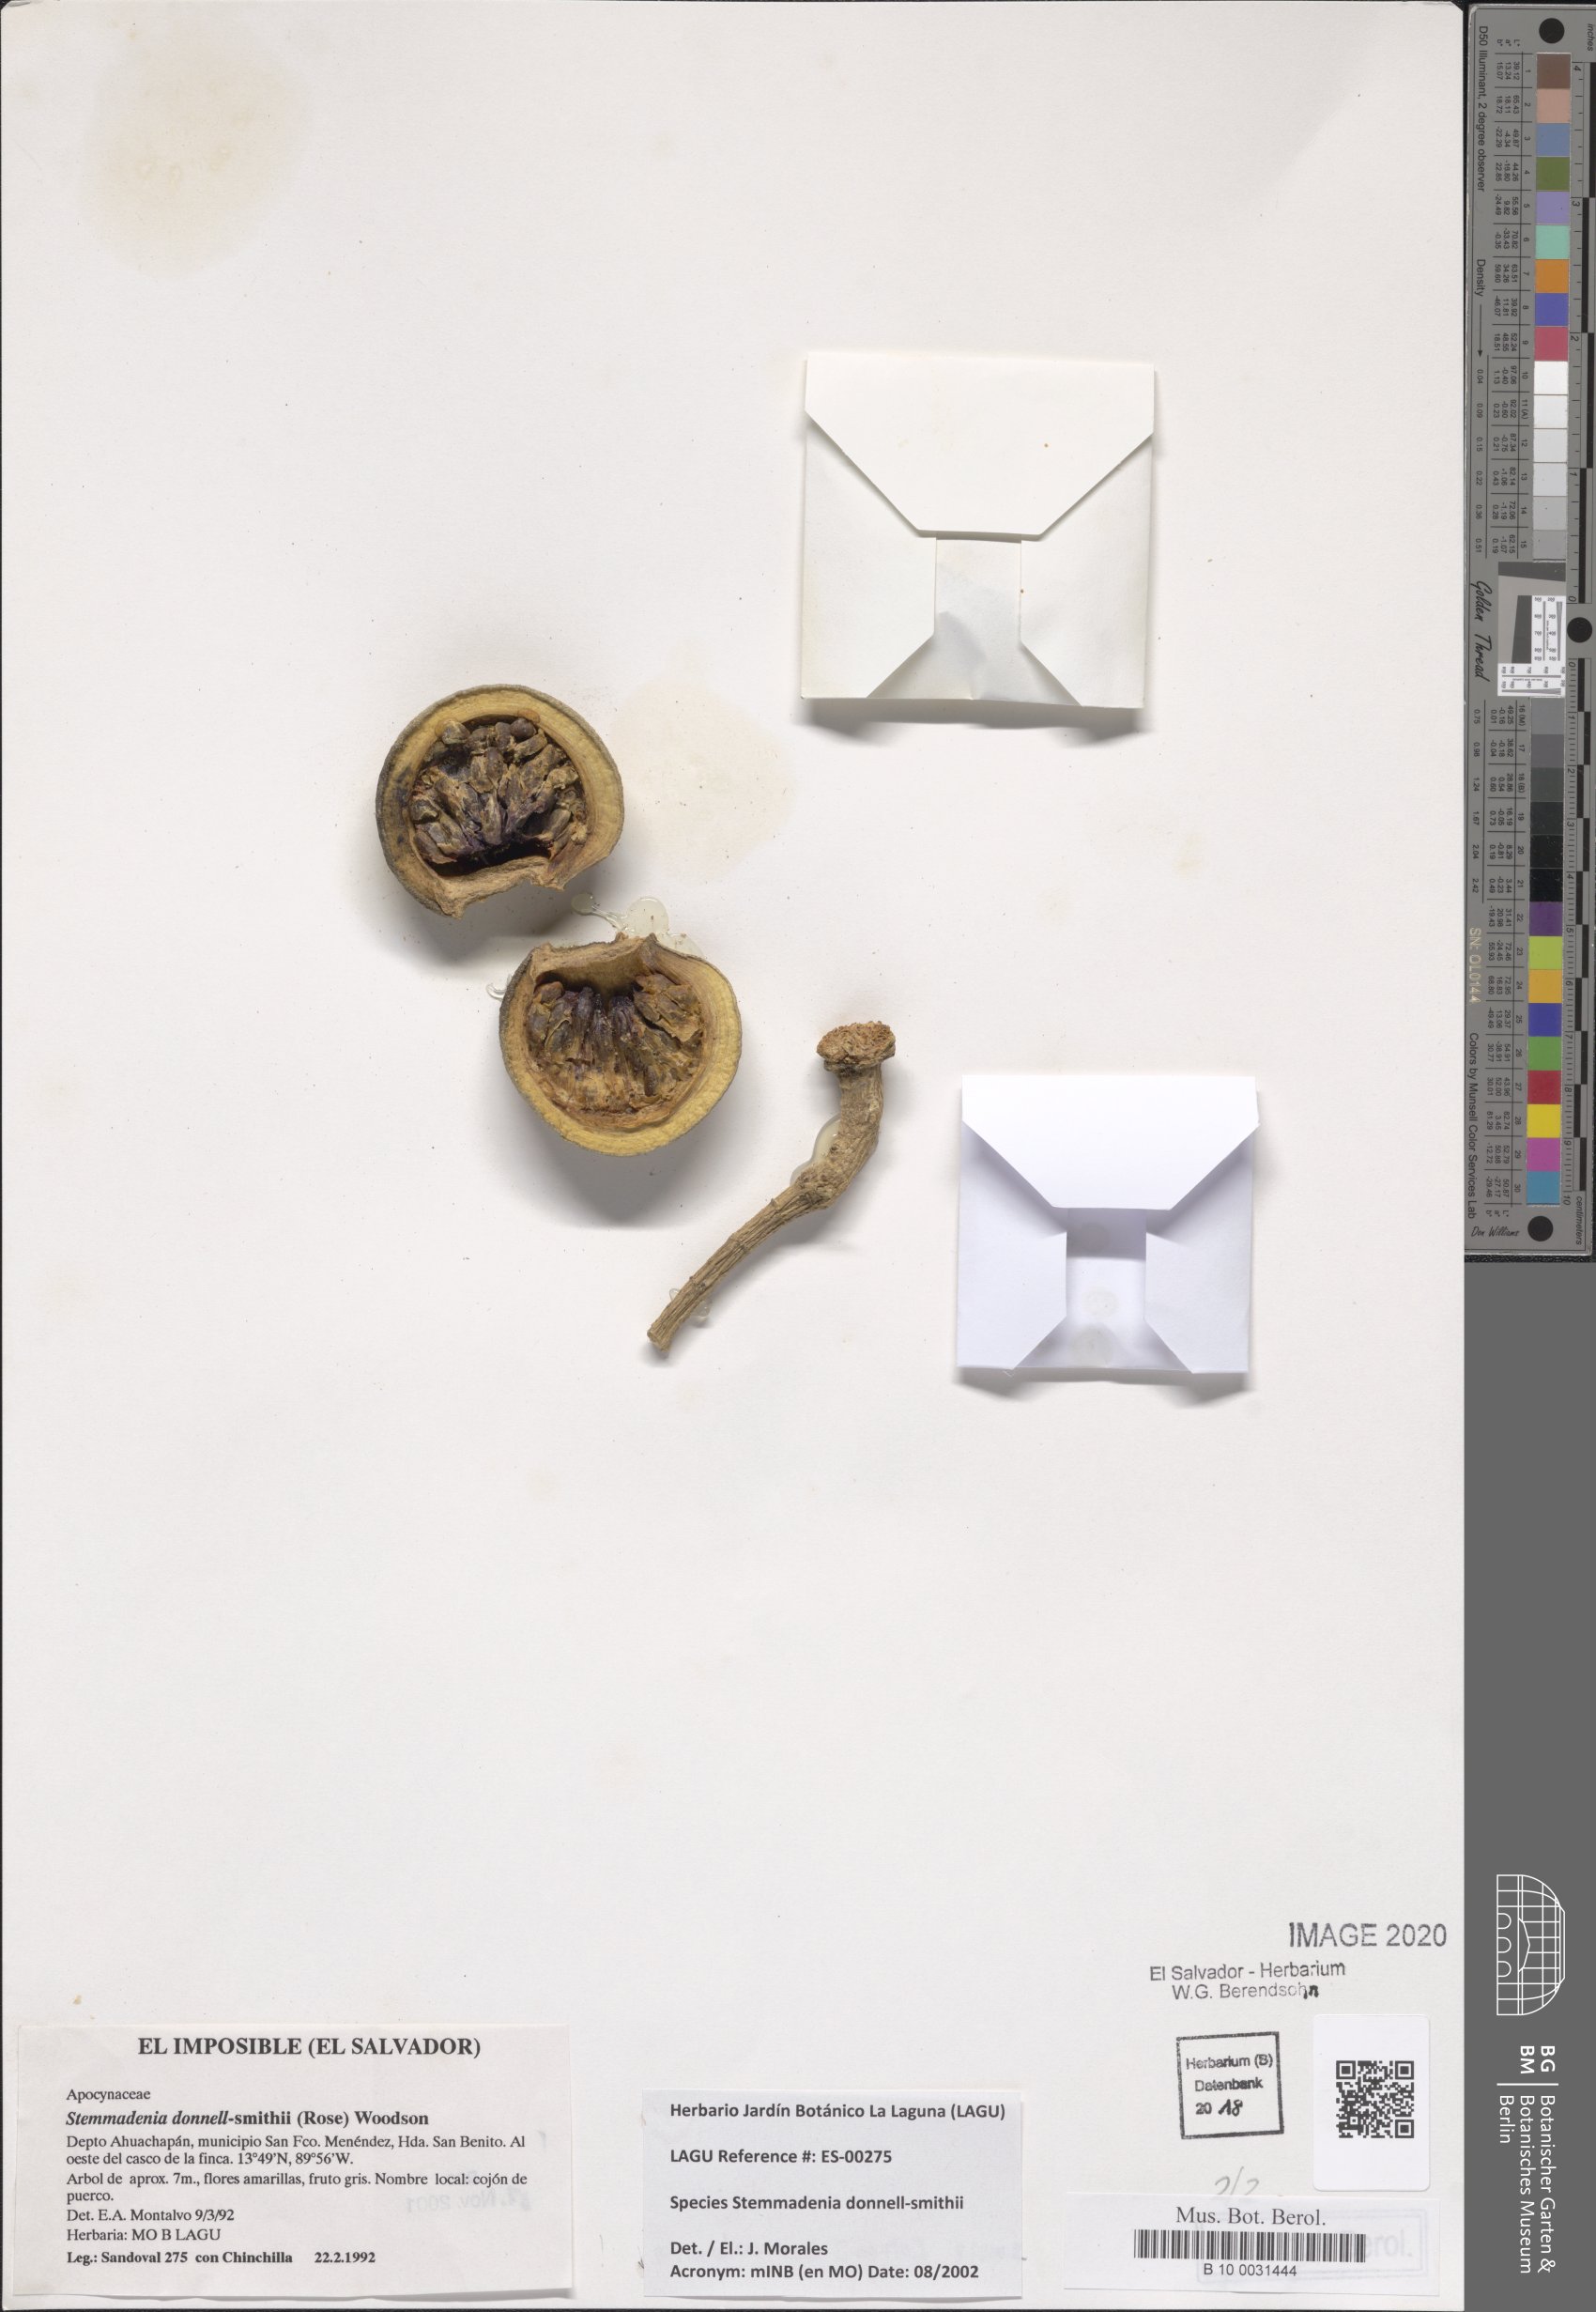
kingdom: Plantae
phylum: Tracheophyta
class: Magnoliopsida
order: Gentianales
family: Apocynaceae
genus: Tabernaemontana
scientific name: Tabernaemontana donnell-smithii
